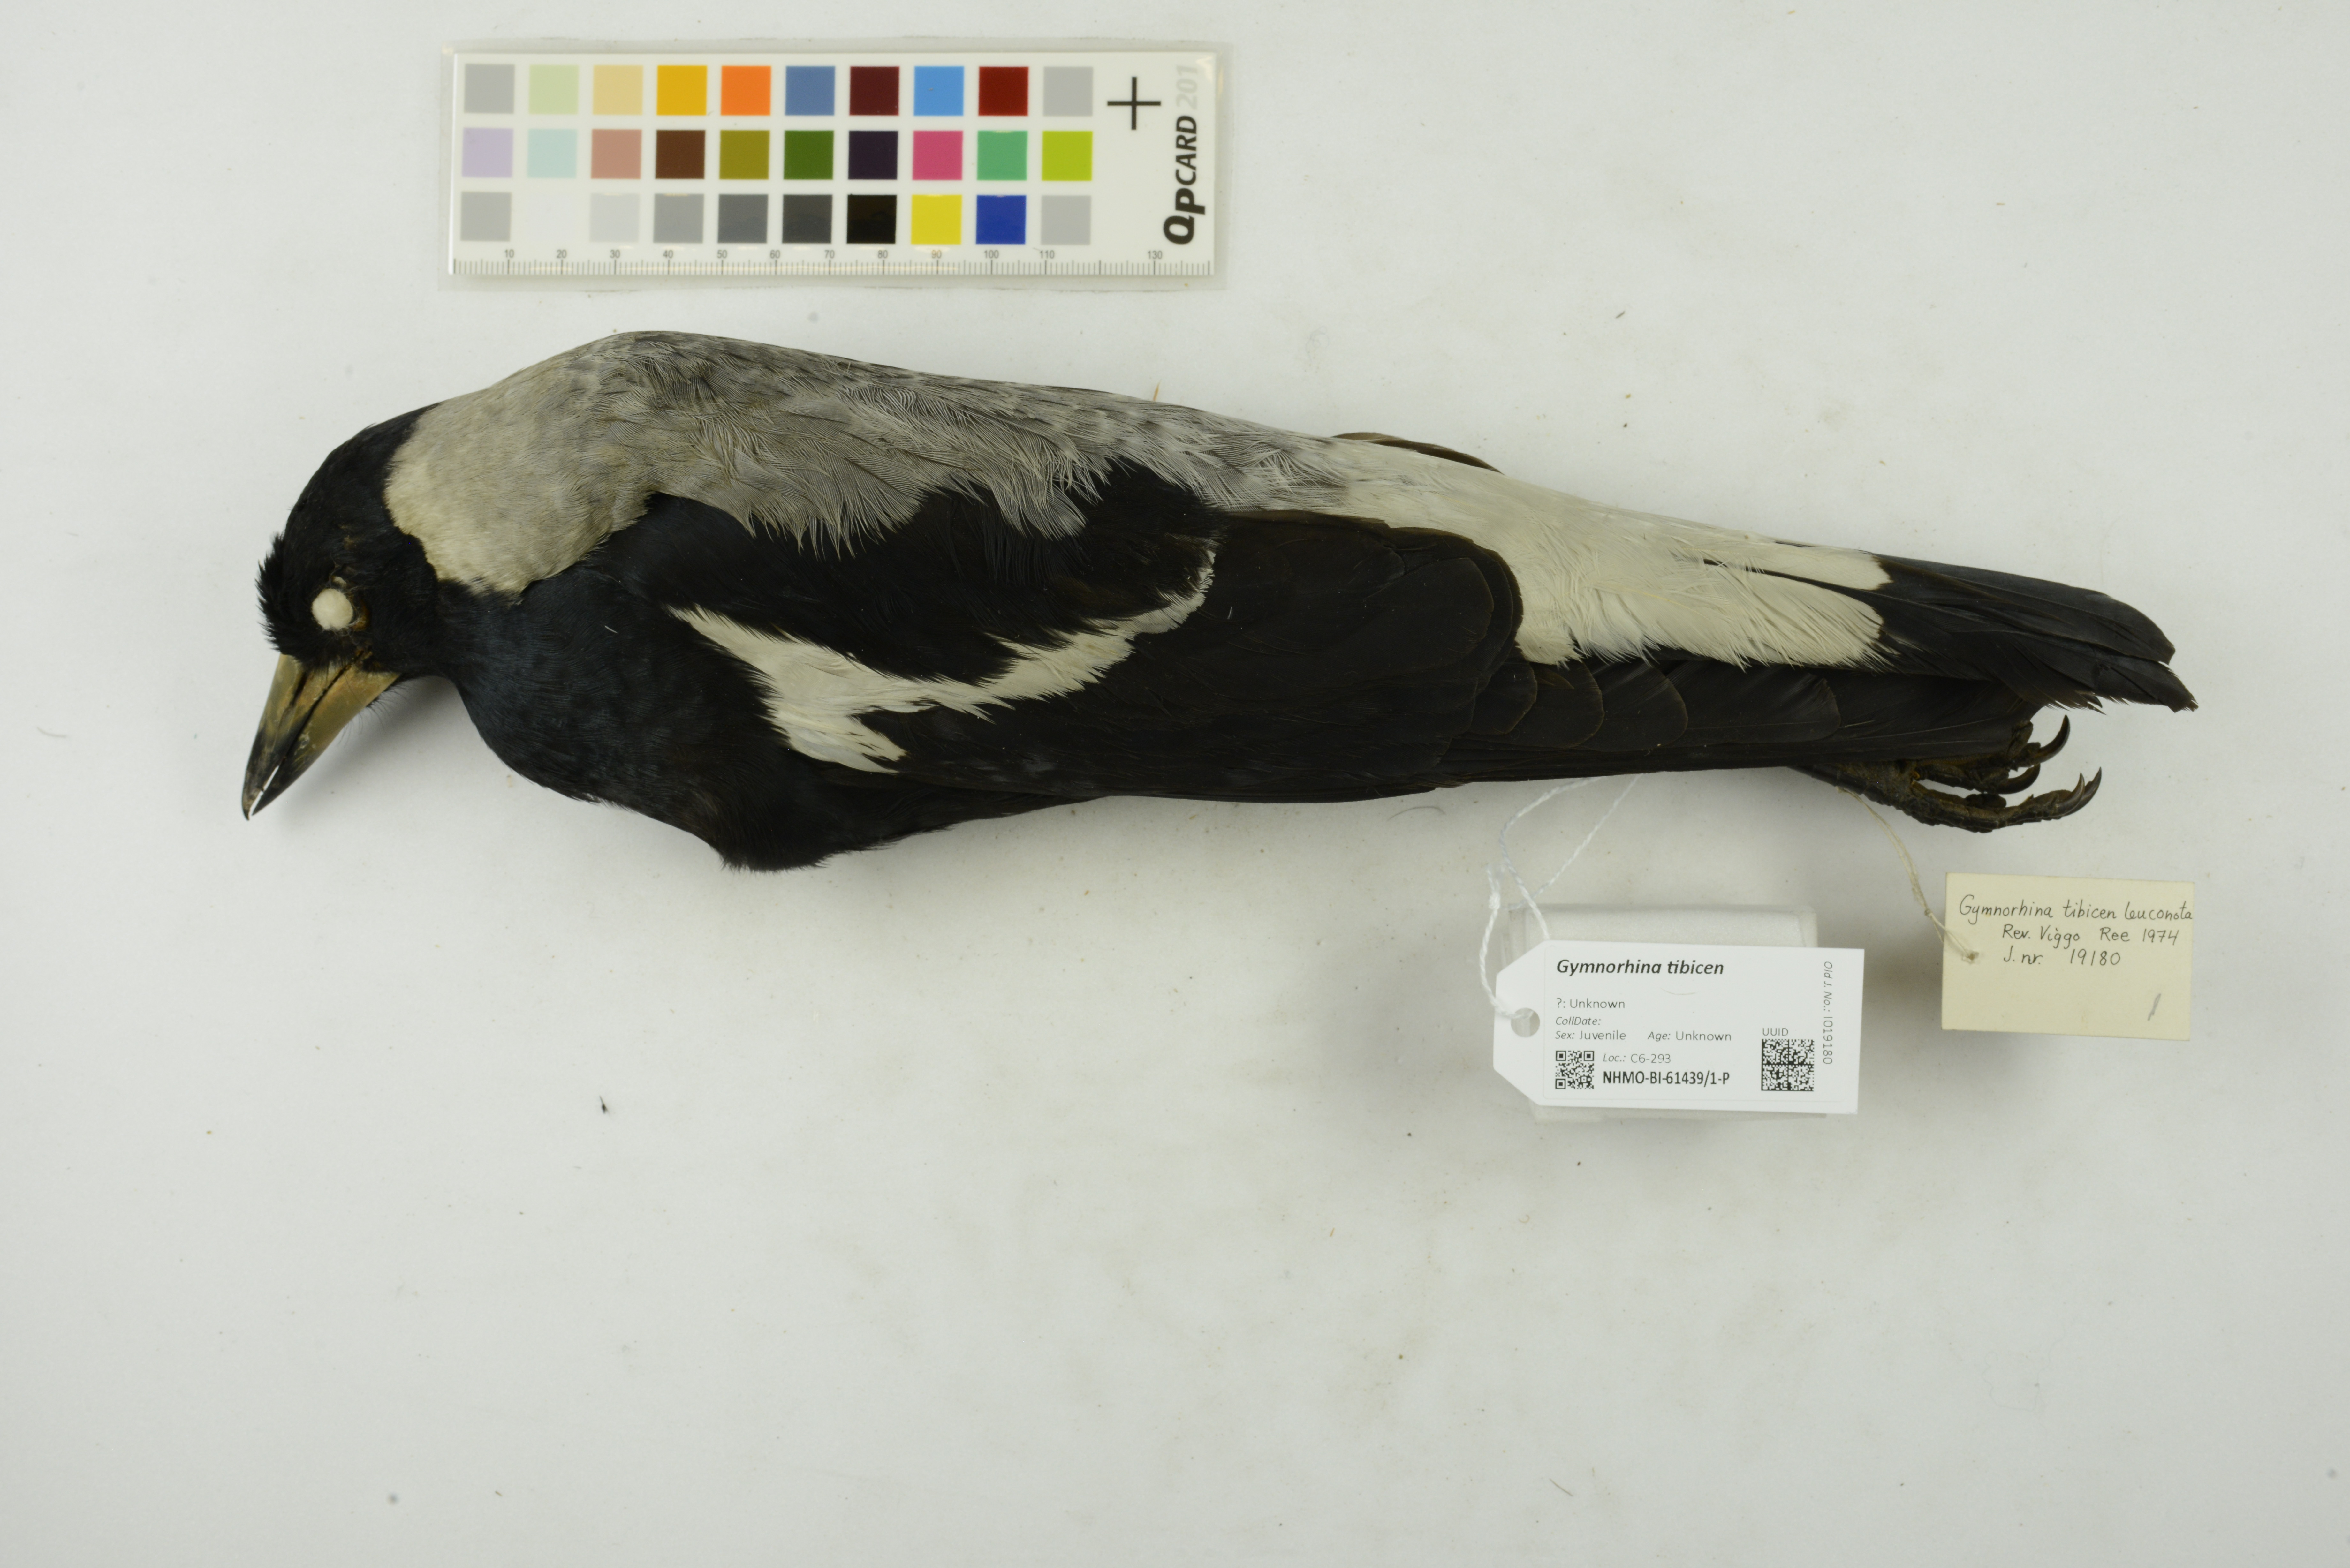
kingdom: Animalia
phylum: Chordata
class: Aves
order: Passeriformes
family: Cracticidae
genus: Gymnorhina
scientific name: Gymnorhina tibicen
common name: Australian magpie
